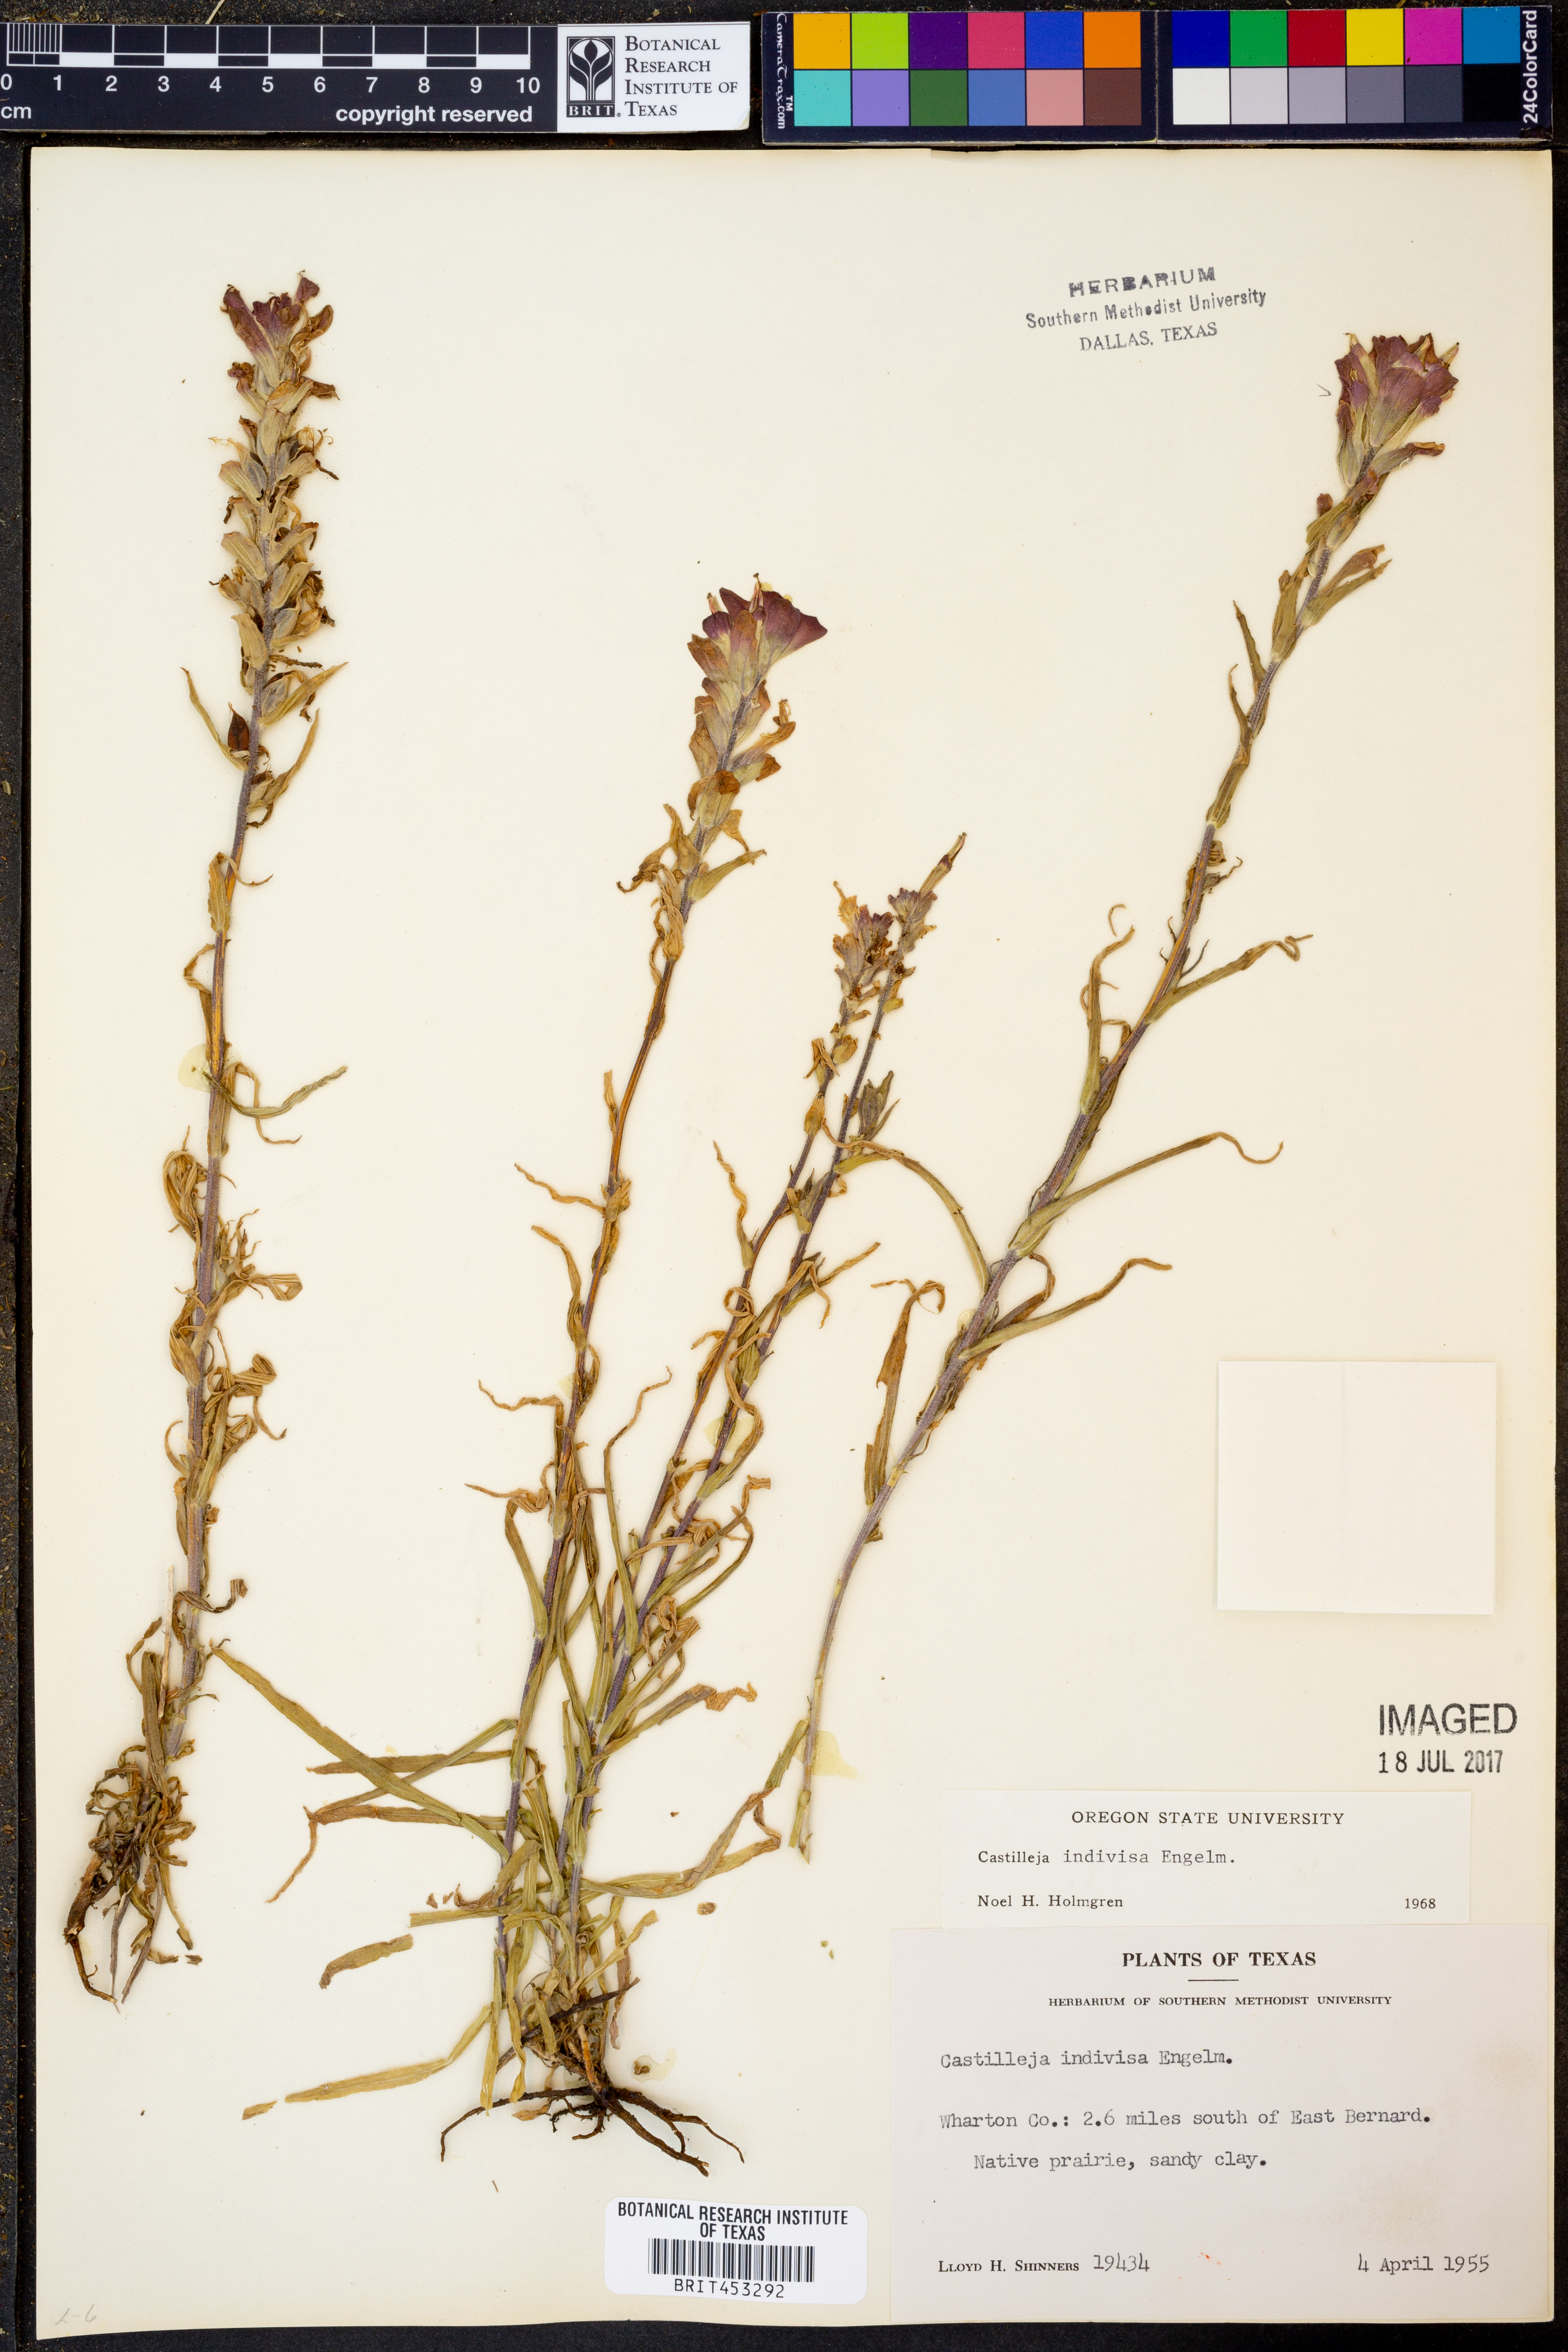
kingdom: Plantae
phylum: Tracheophyta
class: Magnoliopsida
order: Lamiales
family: Orobanchaceae
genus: Castilleja
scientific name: Castilleja indivisa
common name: Texas paintbrush
